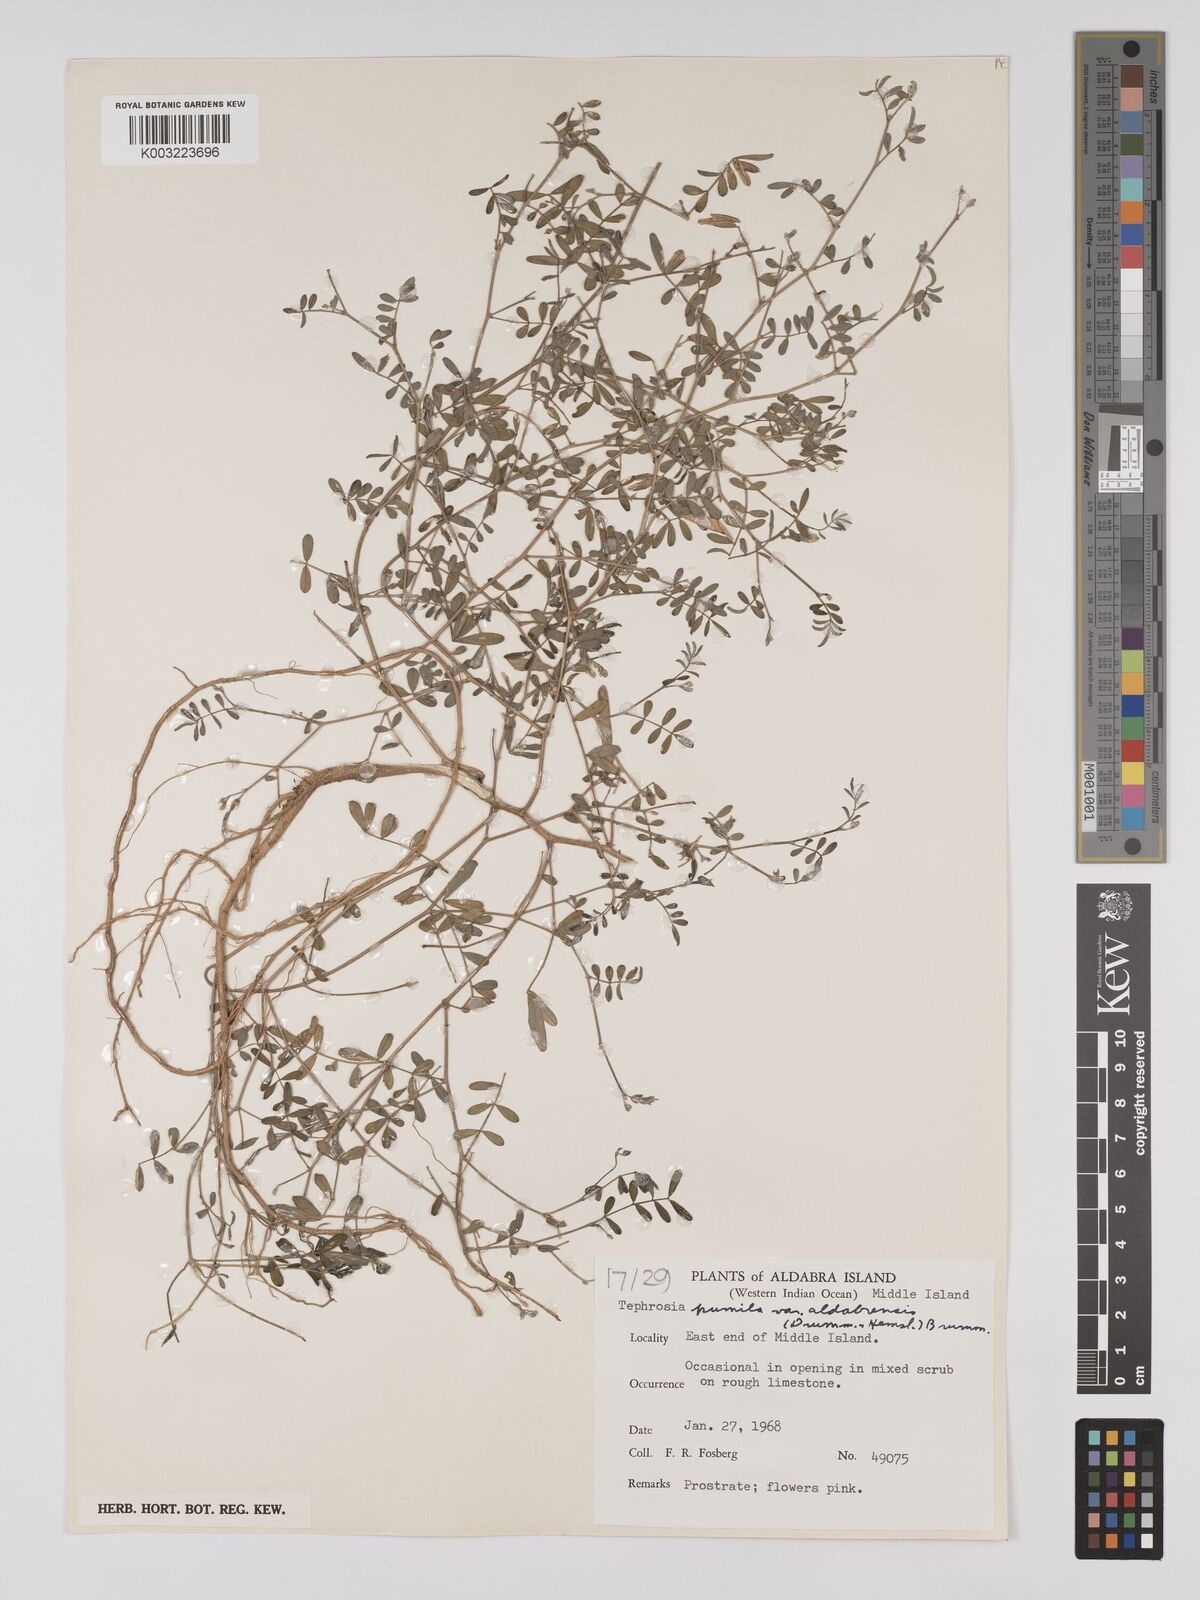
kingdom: Plantae
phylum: Tracheophyta
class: Magnoliopsida
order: Fabales
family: Fabaceae
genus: Tephrosia
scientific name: Tephrosia pumila
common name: Indigo sauvage
